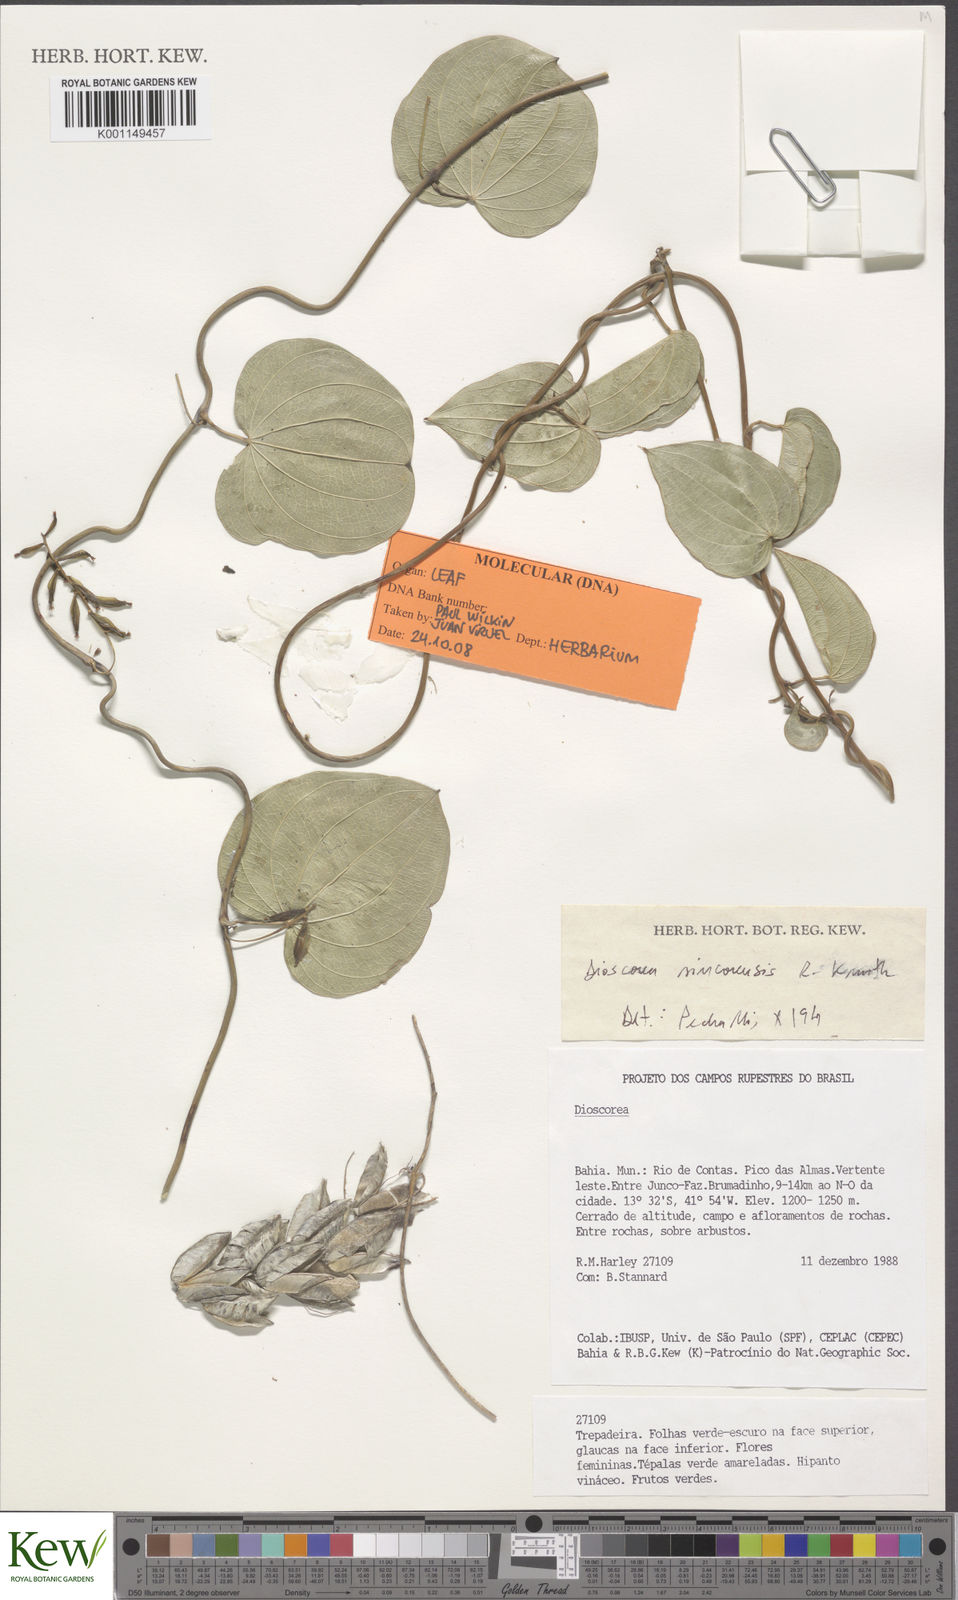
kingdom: Plantae
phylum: Tracheophyta
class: Liliopsida
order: Dioscoreales
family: Dioscoreaceae
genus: Dioscorea
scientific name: Dioscorea sincorensis
